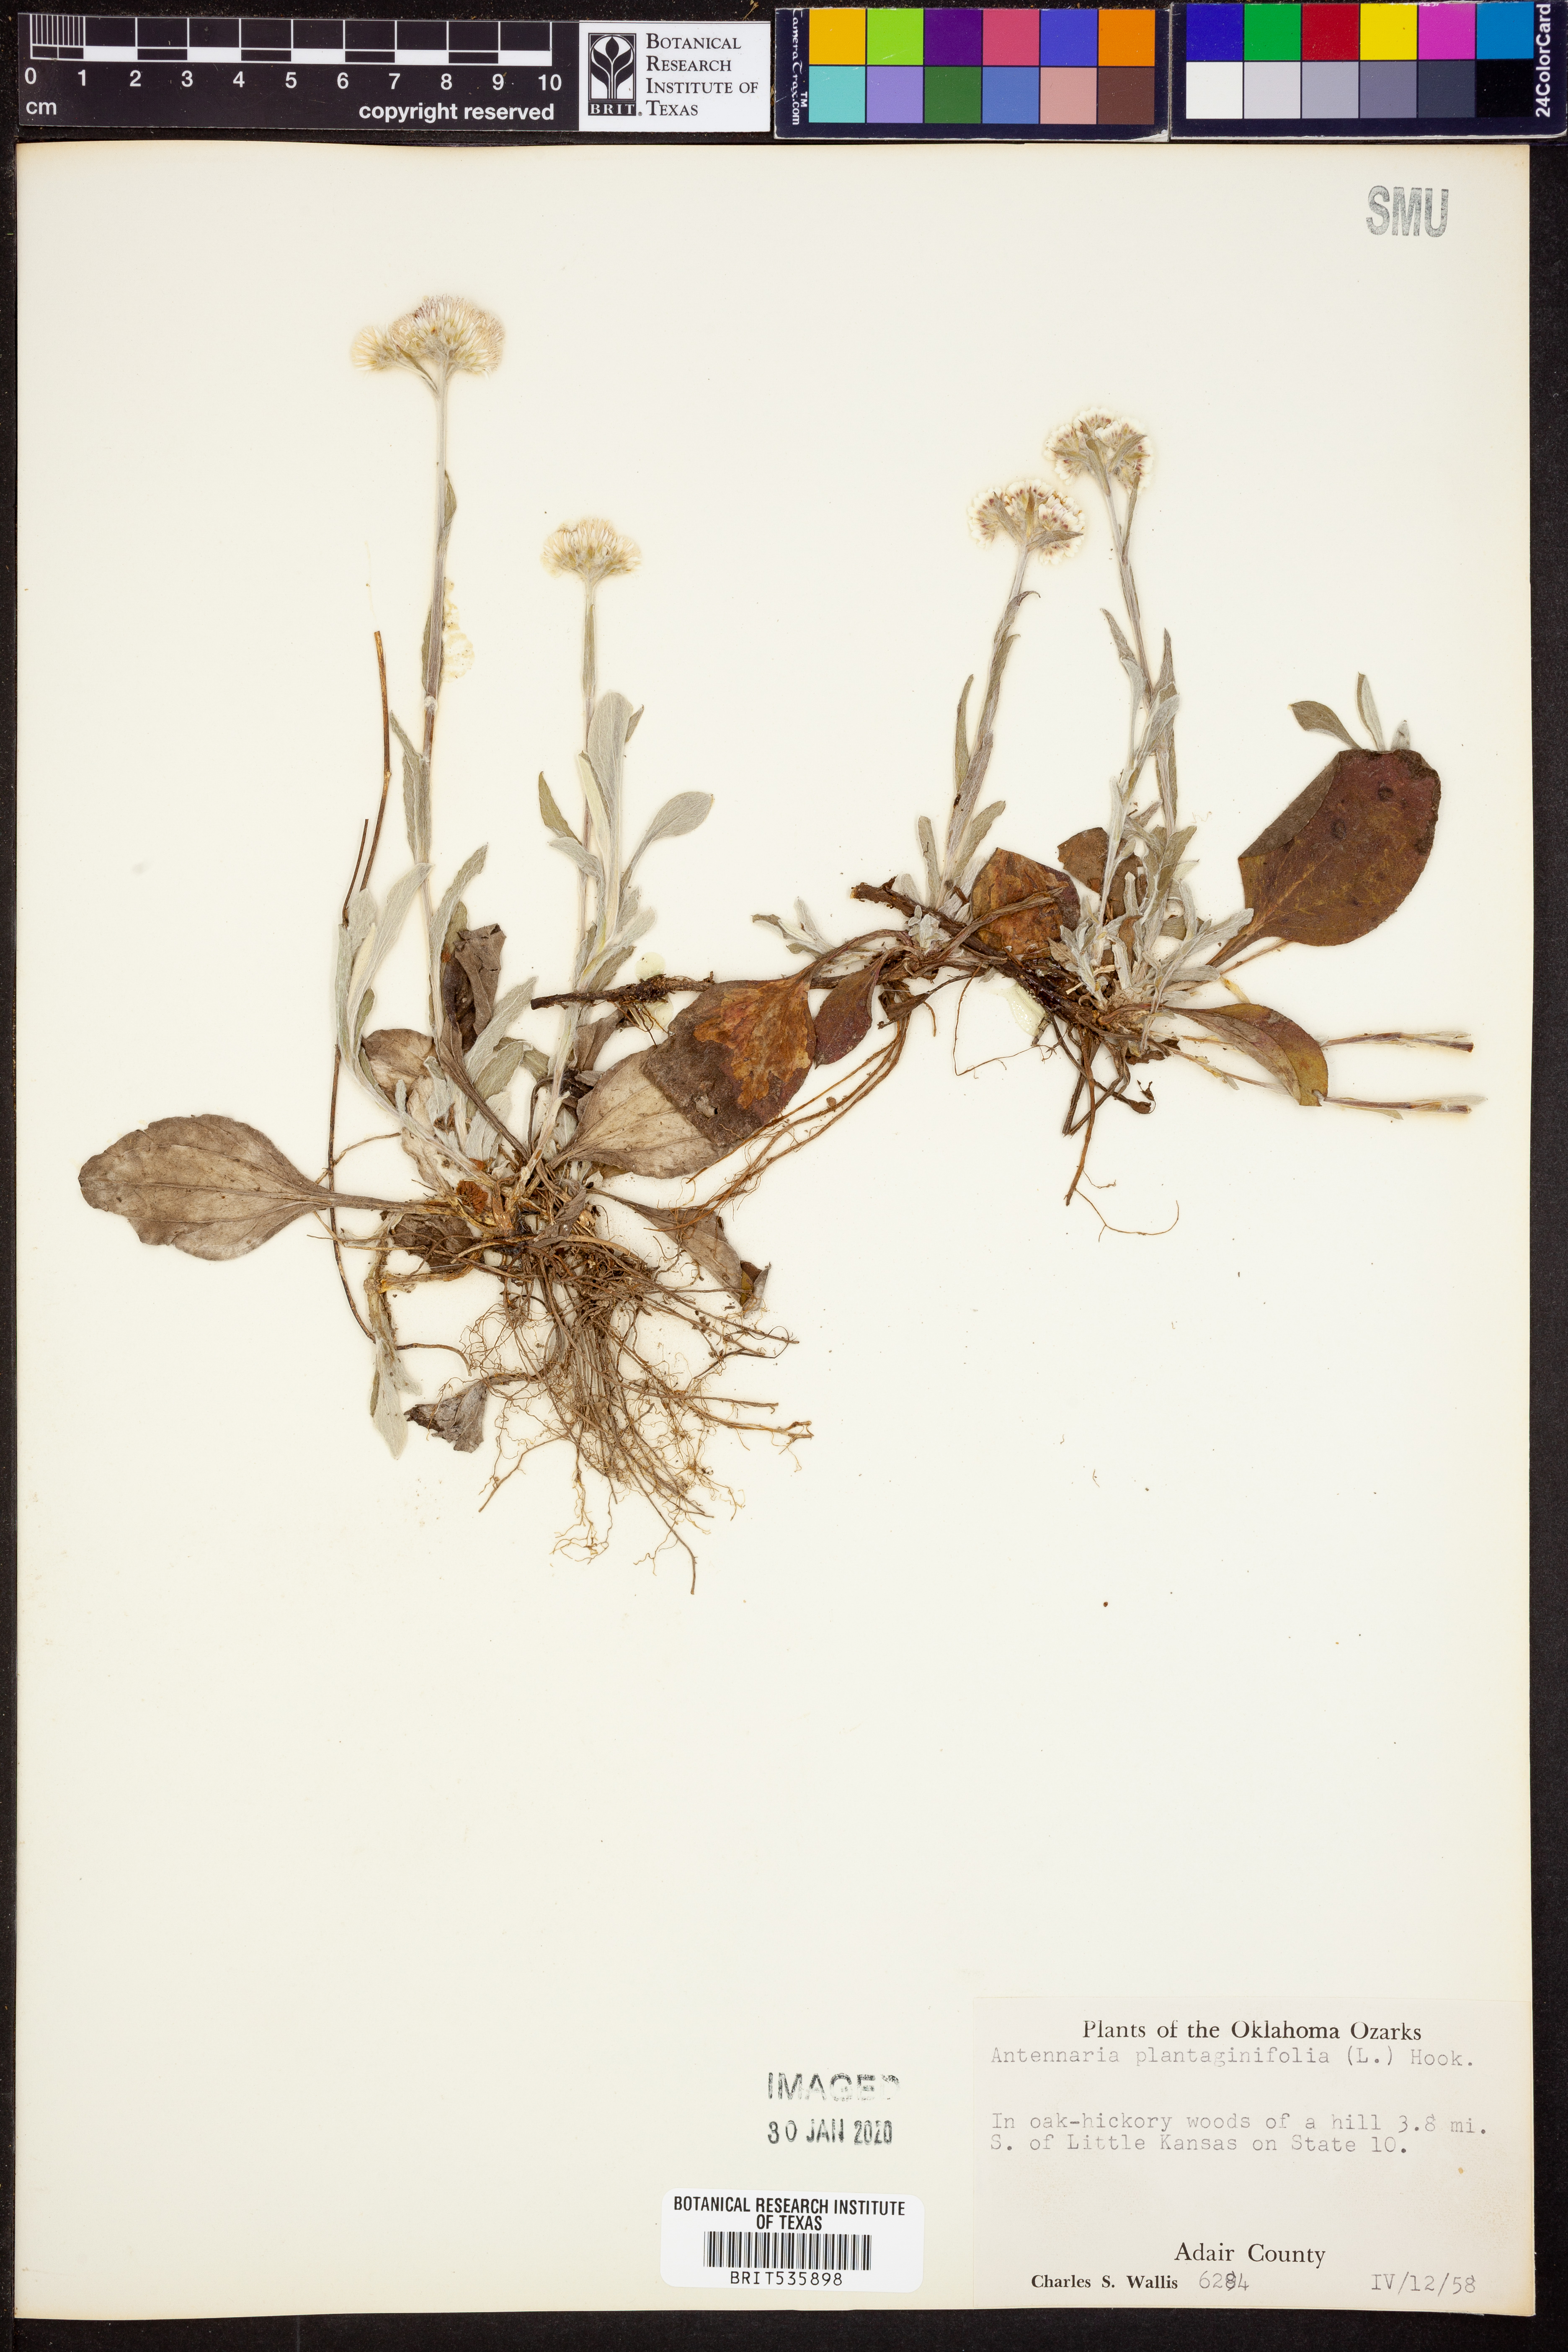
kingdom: Plantae
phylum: Tracheophyta
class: Magnoliopsida
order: Asterales
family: Asteraceae
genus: Antennaria
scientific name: Antennaria plantaginifolia
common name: Plantain-leaved pussytoes
